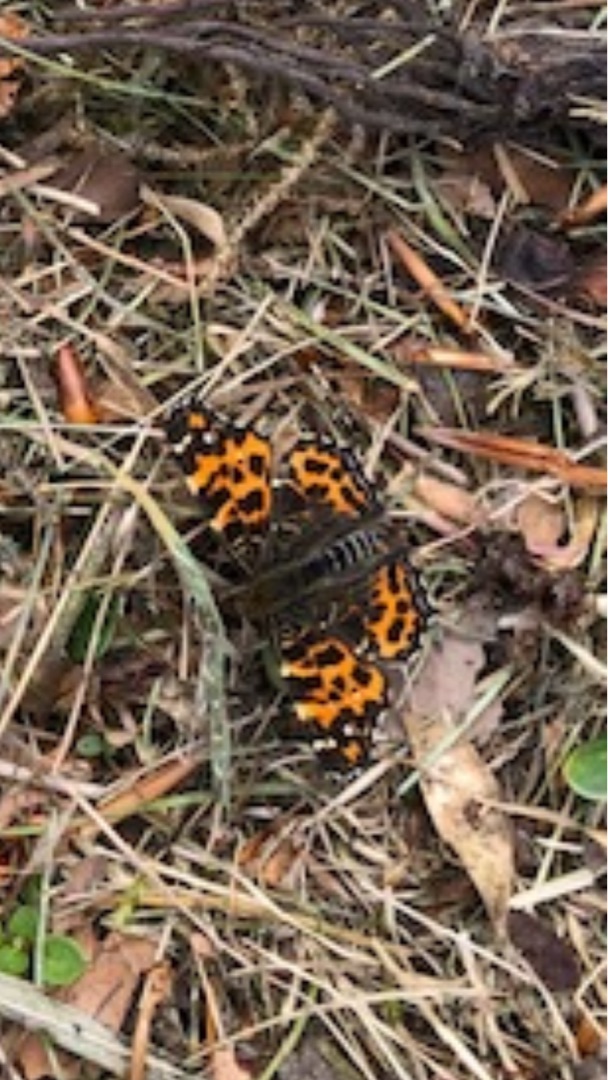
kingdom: Animalia
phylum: Arthropoda
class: Insecta
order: Lepidoptera
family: Nymphalidae
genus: Araschnia
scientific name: Araschnia levana
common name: Nældesommerfugl
